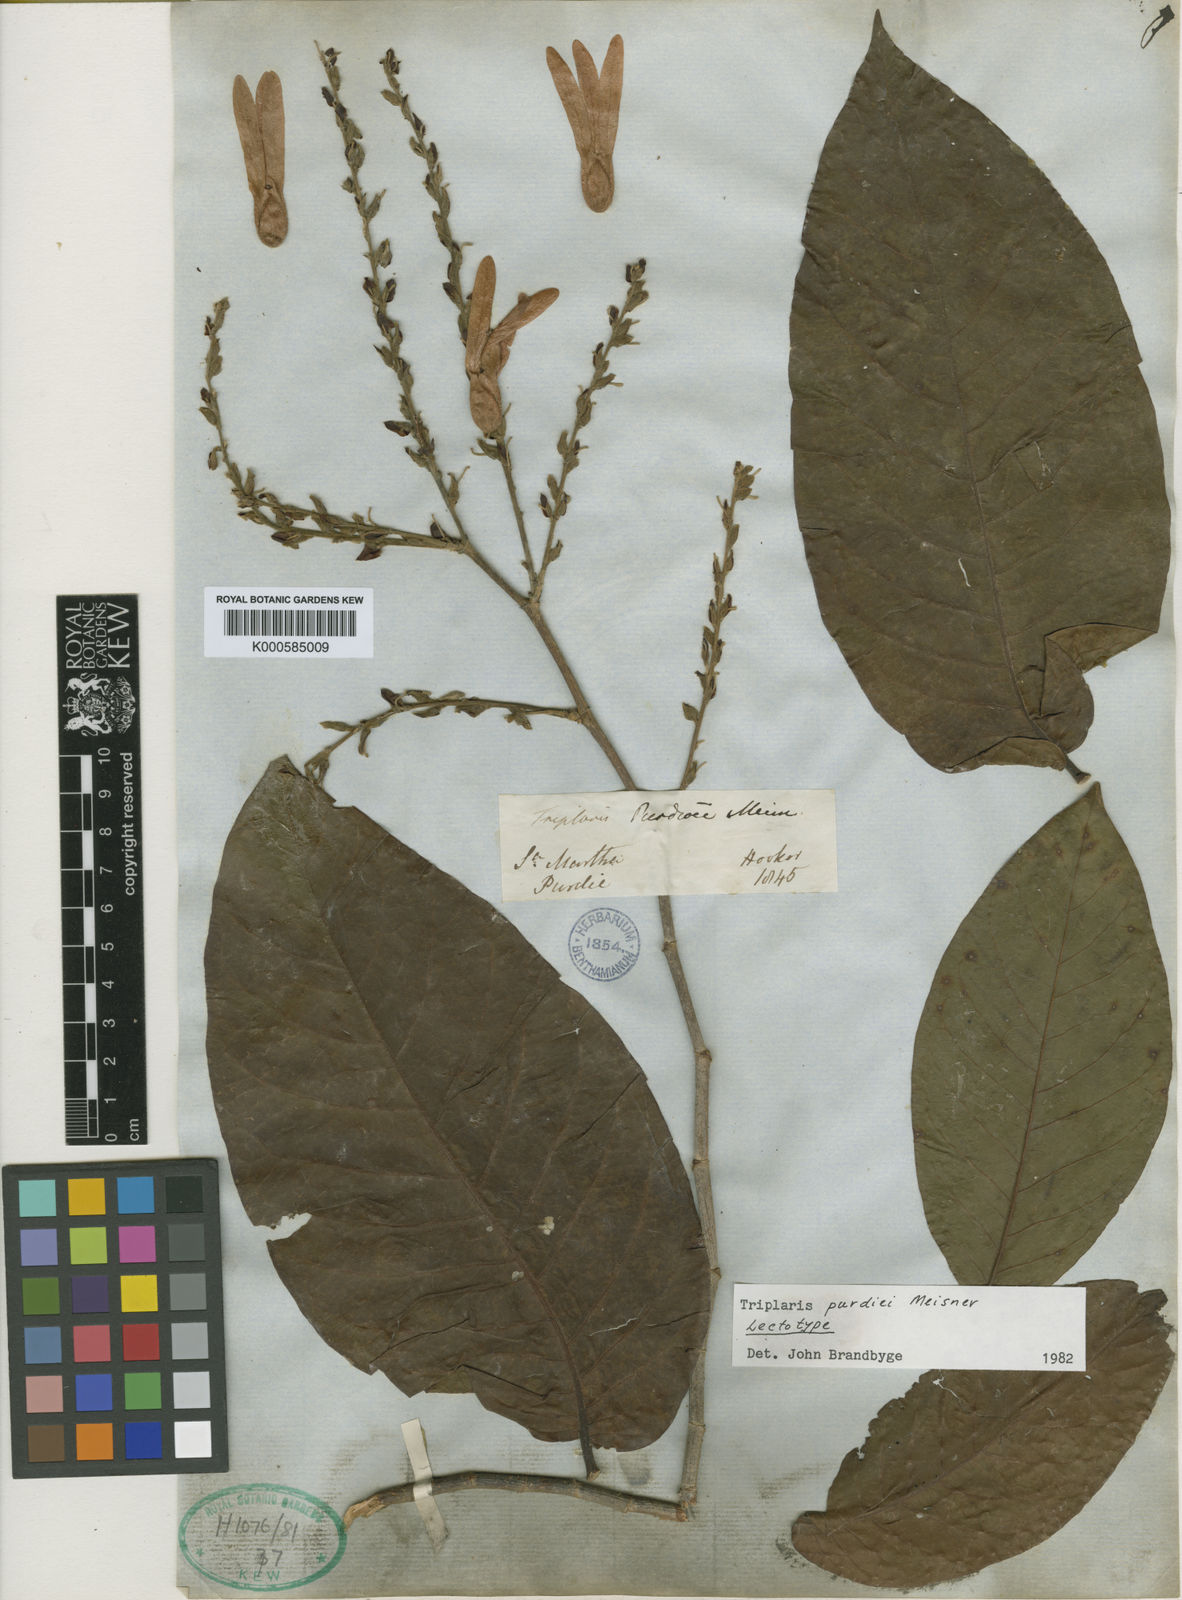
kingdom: Plantae
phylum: Tracheophyta
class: Magnoliopsida
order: Caryophyllales
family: Polygonaceae
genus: Triplaris
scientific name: Triplaris purdiei
